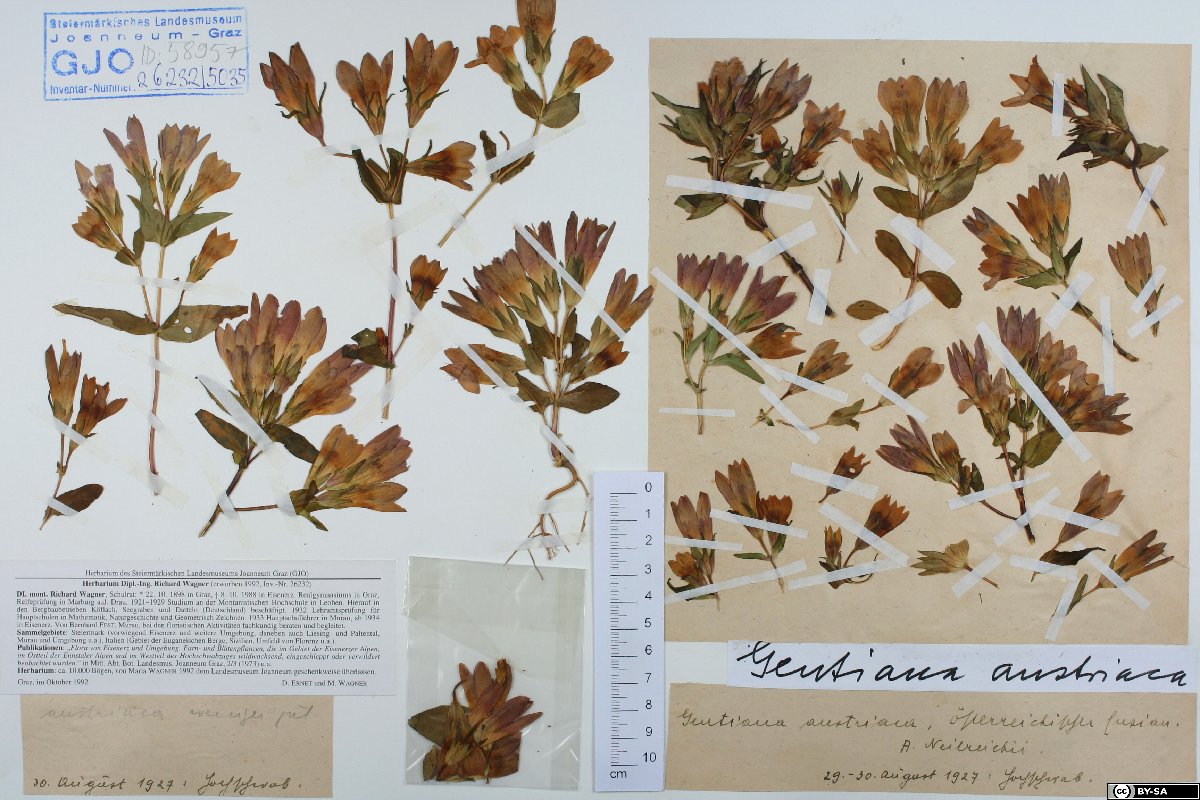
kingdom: Plantae
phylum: Tracheophyta
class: Magnoliopsida
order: Gentianales
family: Gentianaceae
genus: Gentianella
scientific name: Gentianella austriaca
